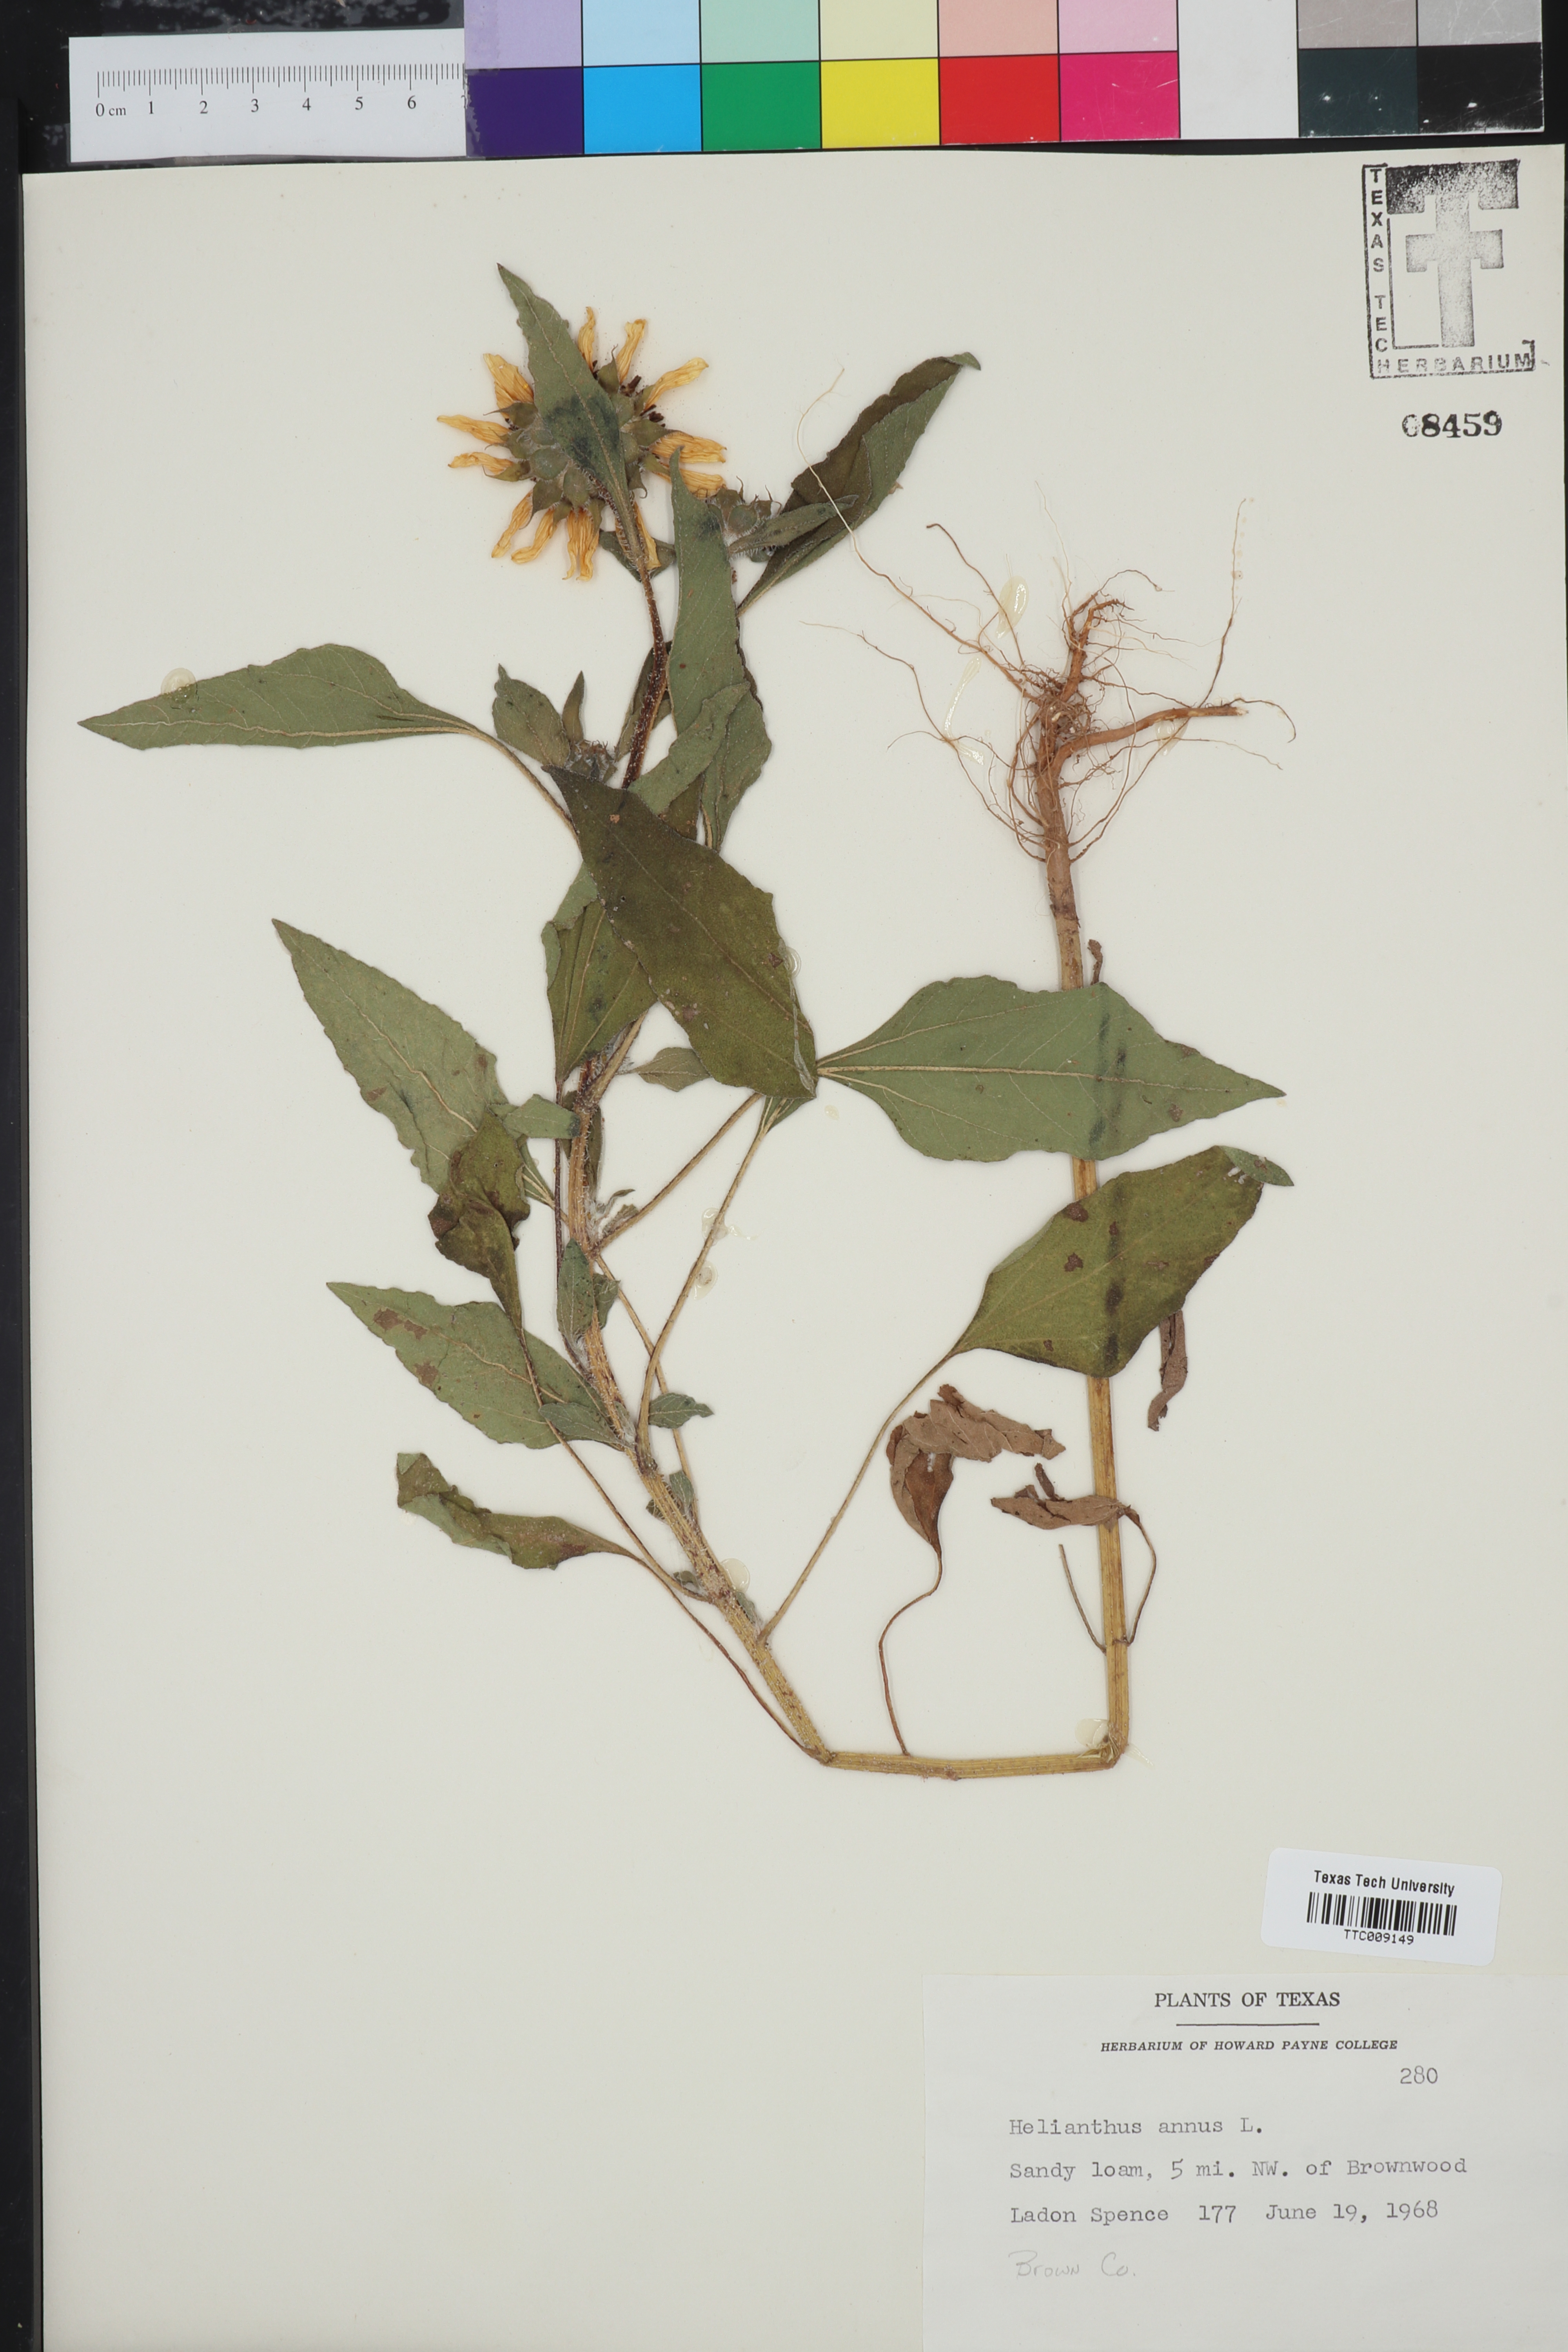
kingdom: Plantae
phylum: Tracheophyta
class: Magnoliopsida
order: Asterales
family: Asteraceae
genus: Helianthus
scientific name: Helianthus annuus
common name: Sunflower
